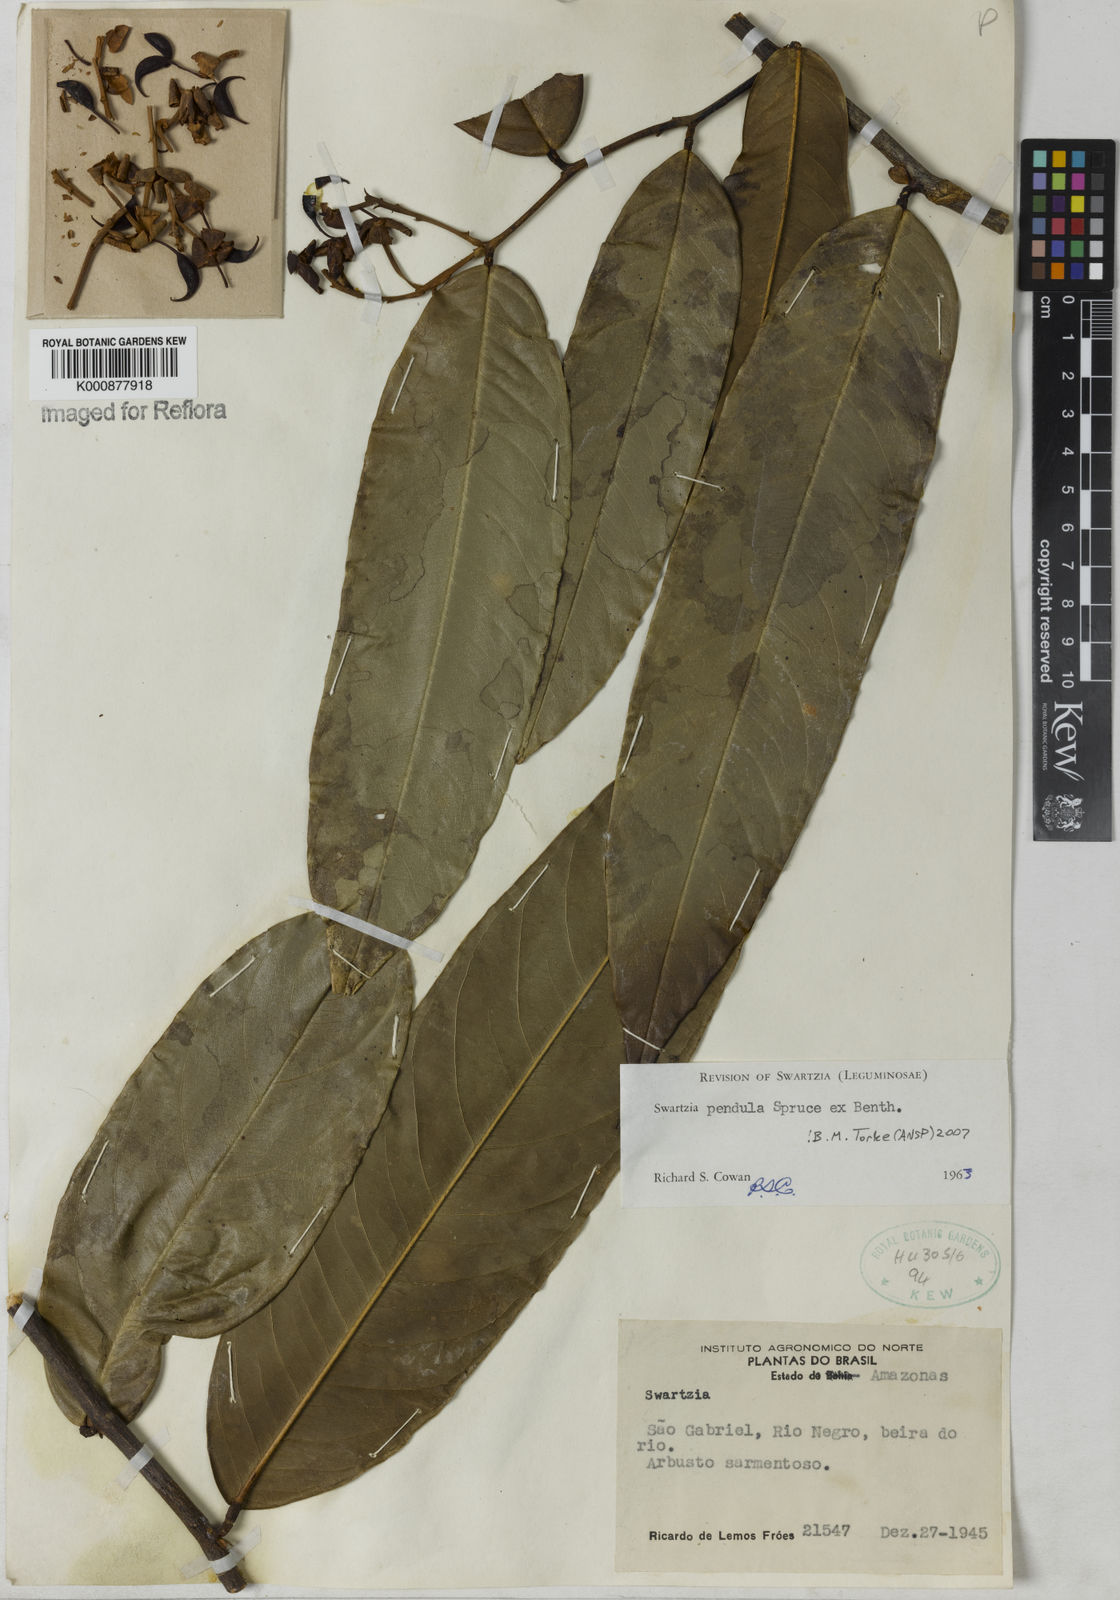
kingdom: Plantae
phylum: Tracheophyta
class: Magnoliopsida
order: Fabales
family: Fabaceae
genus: Swartzia
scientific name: Swartzia pendula
